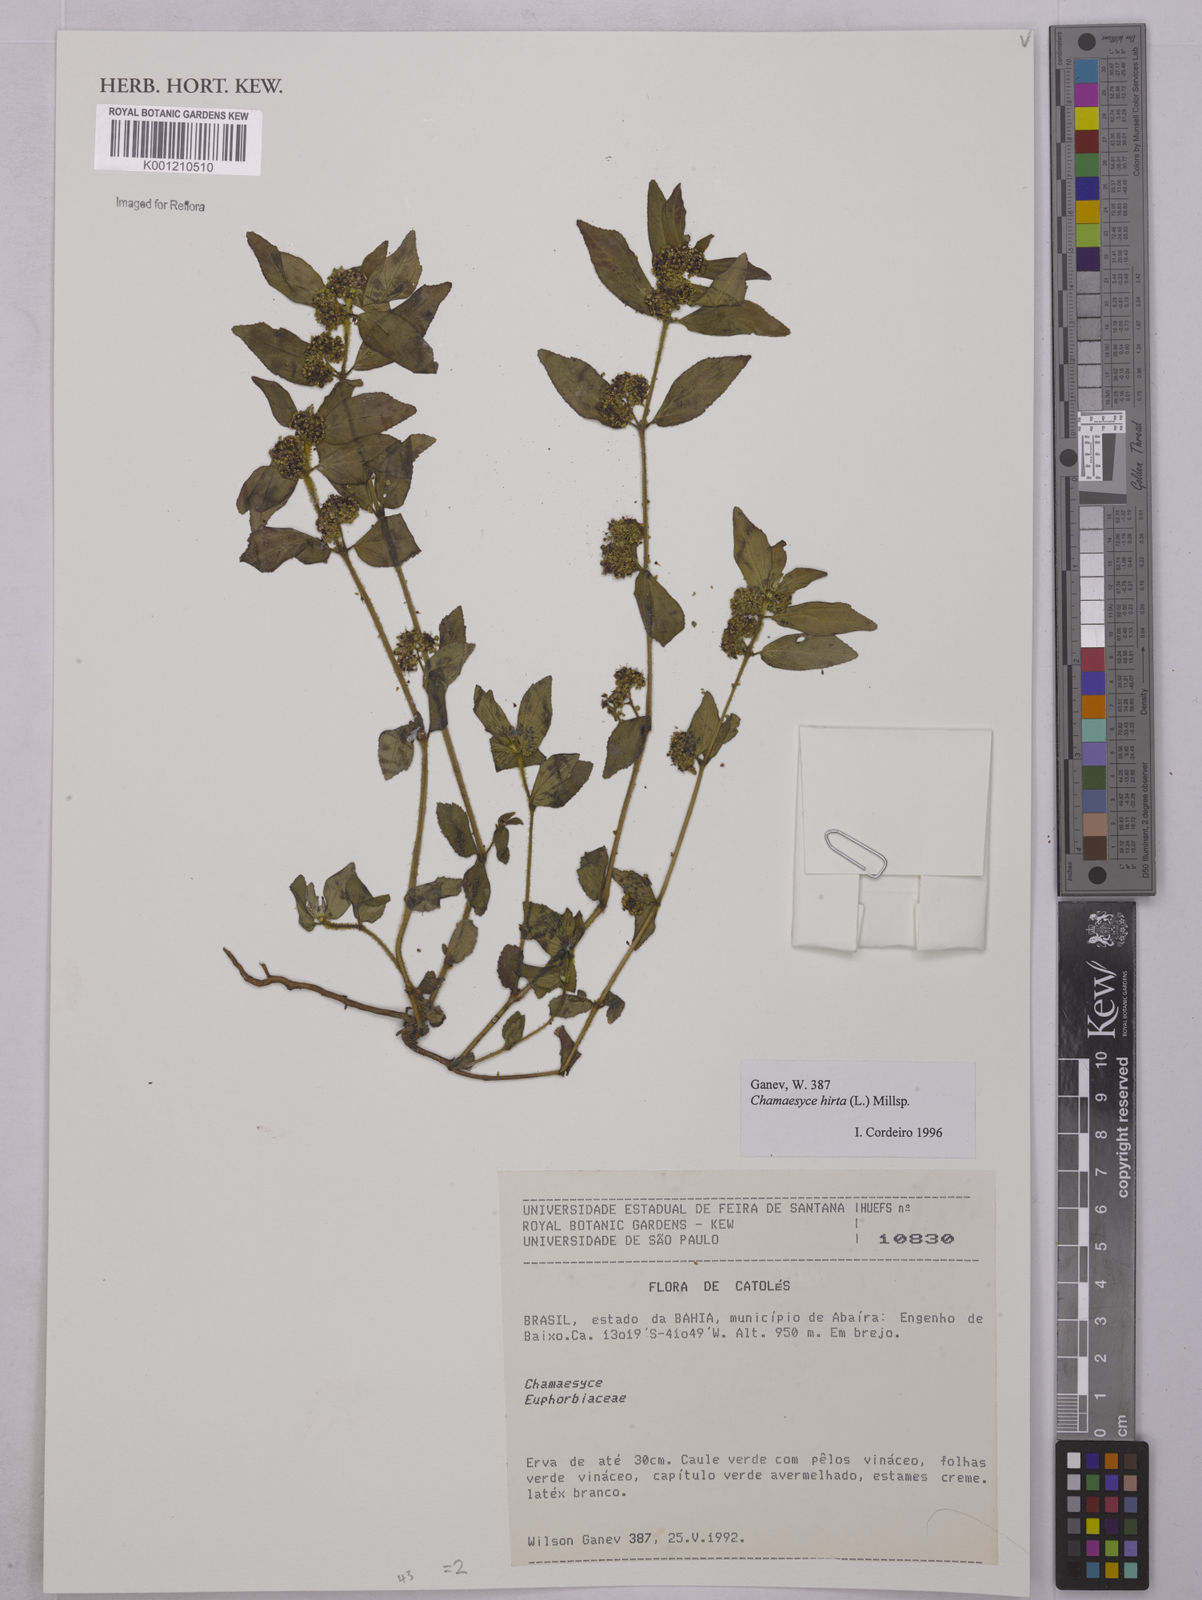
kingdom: Plantae
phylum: Tracheophyta
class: Magnoliopsida
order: Malpighiales
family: Euphorbiaceae
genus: Euphorbia
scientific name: Euphorbia hirta
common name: Pillpod sandmat
